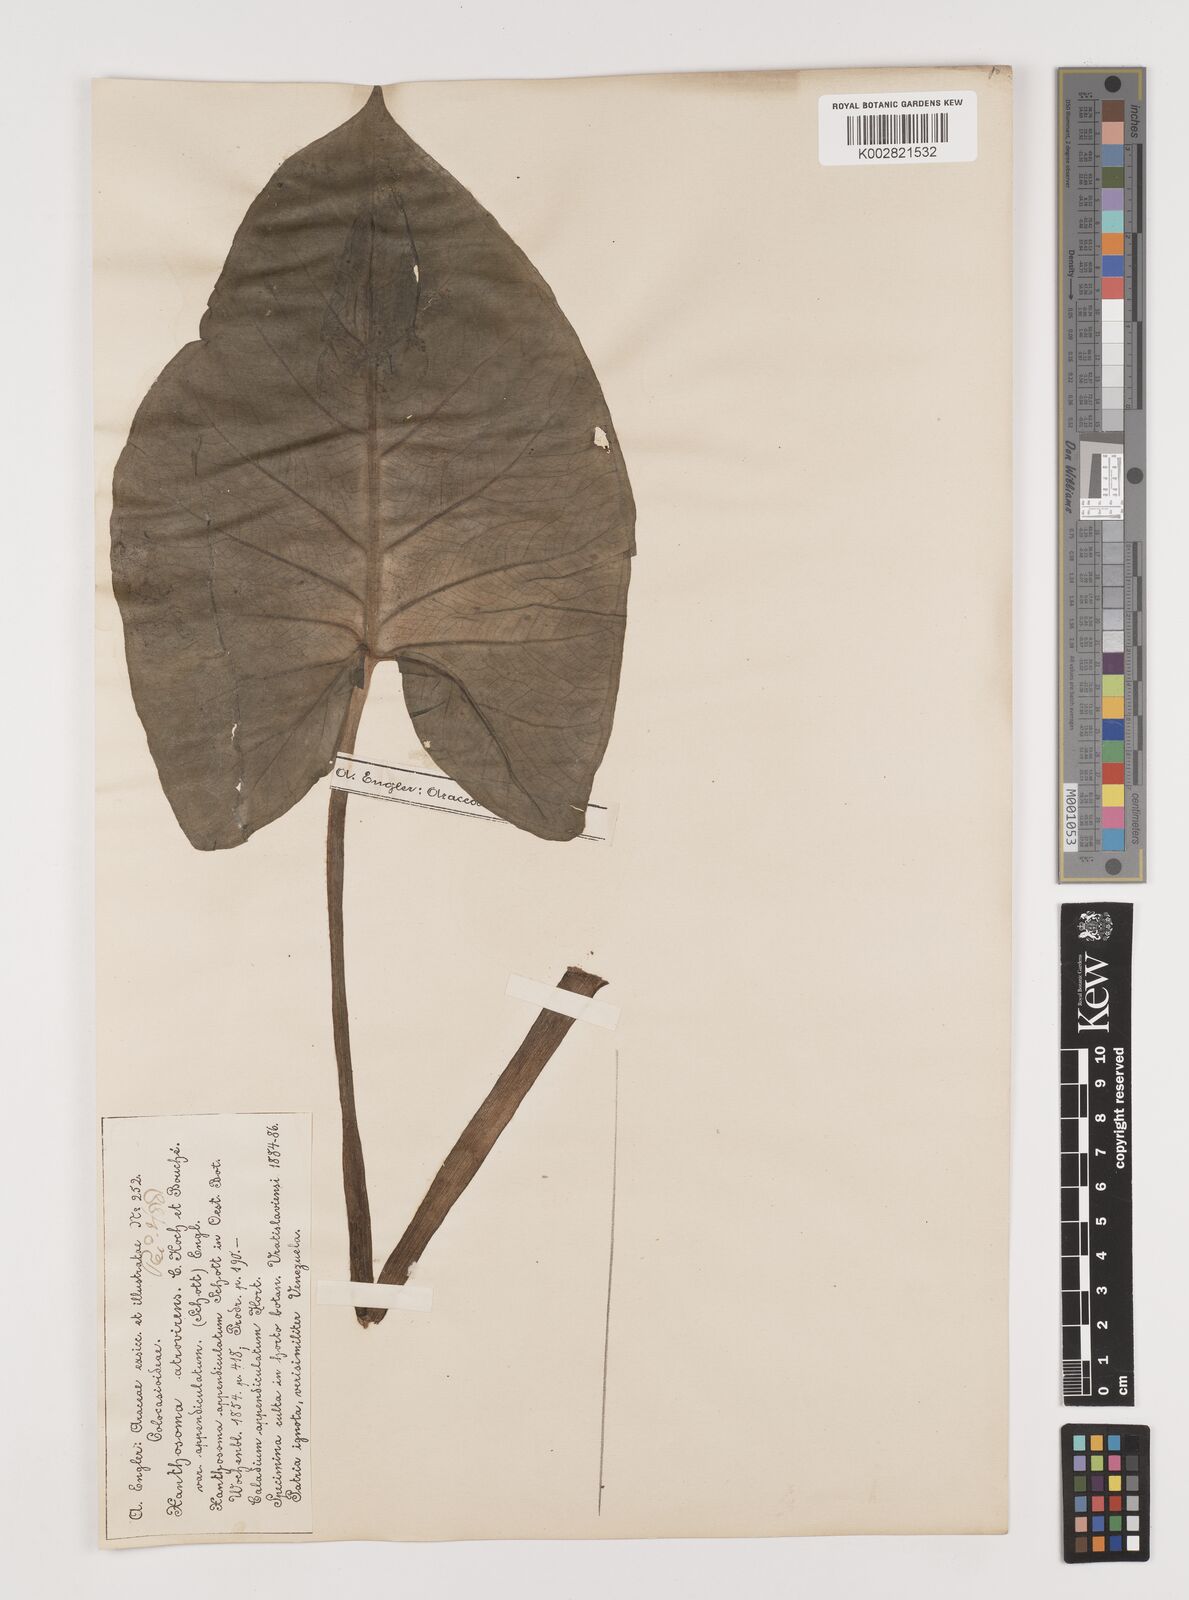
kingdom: Plantae
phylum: Tracheophyta
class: Liliopsida
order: Alismatales
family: Araceae
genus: Xanthosoma
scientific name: Xanthosoma sagittifolium
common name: Arrowleaf elephant's ear
